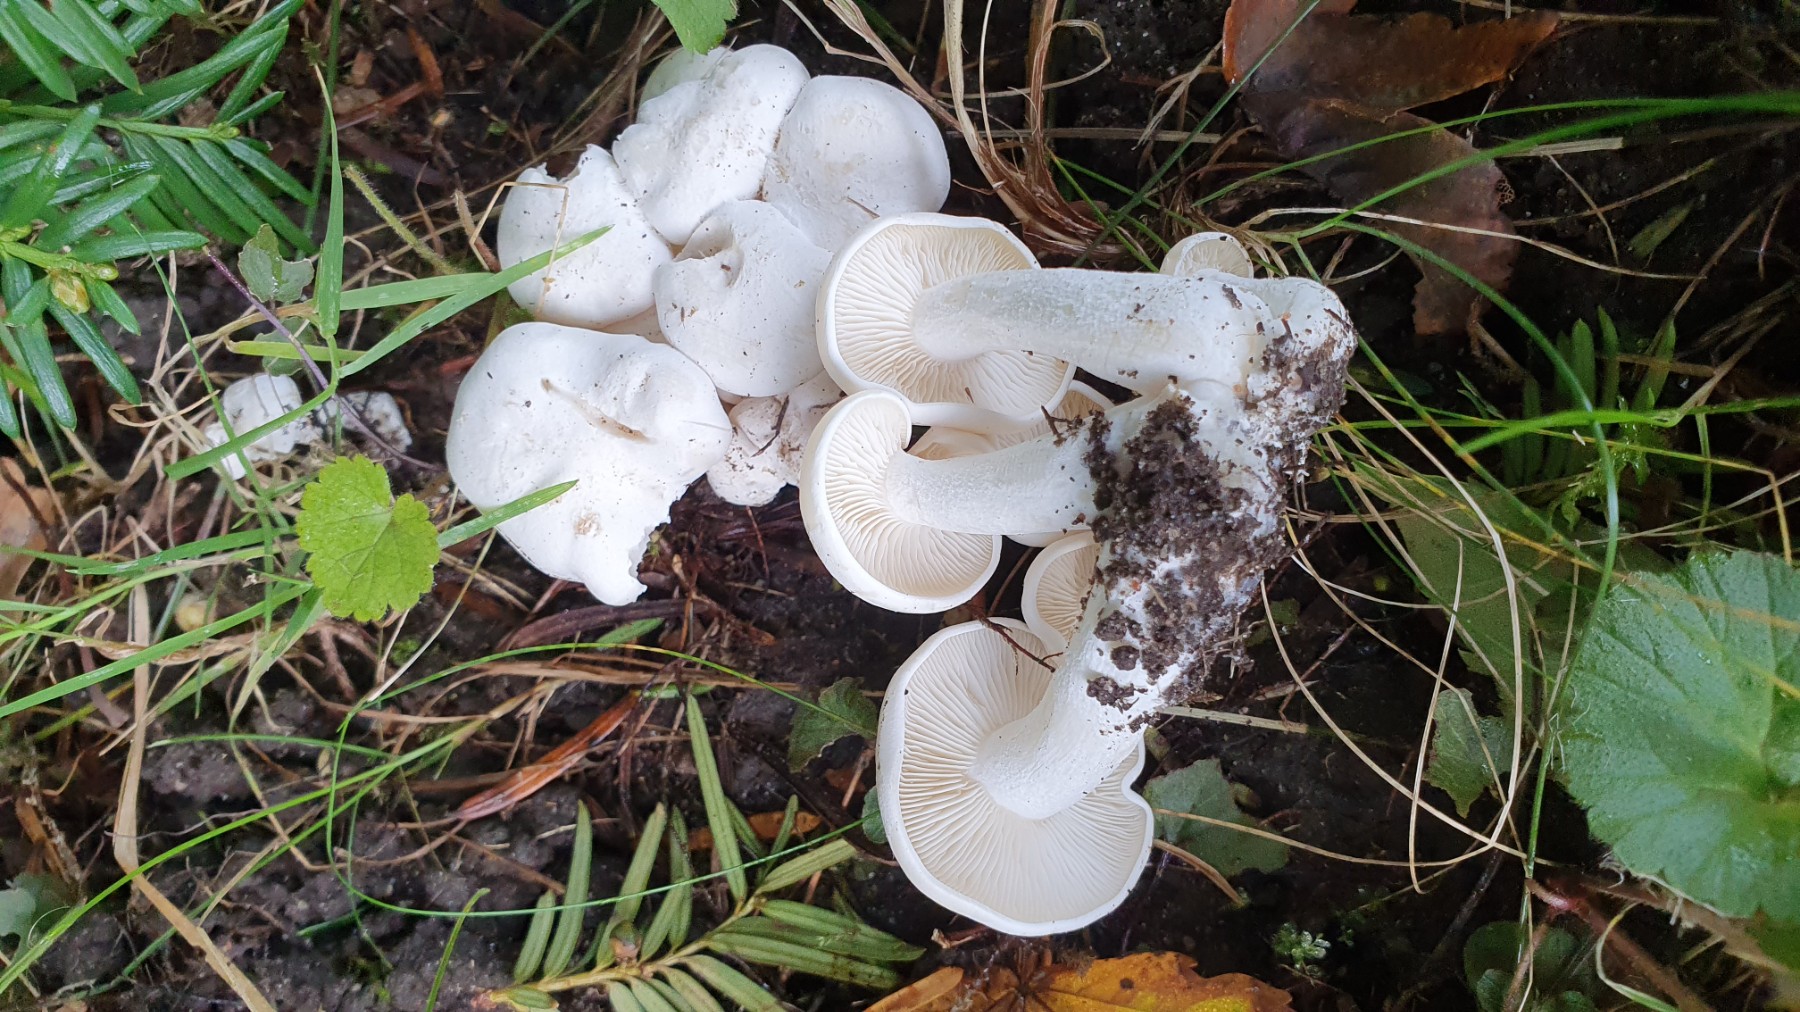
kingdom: Fungi
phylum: Basidiomycota
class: Agaricomycetes
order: Agaricales
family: Tricholomataceae
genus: Leucocybe
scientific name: Leucocybe connata
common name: knippe-tragthat
